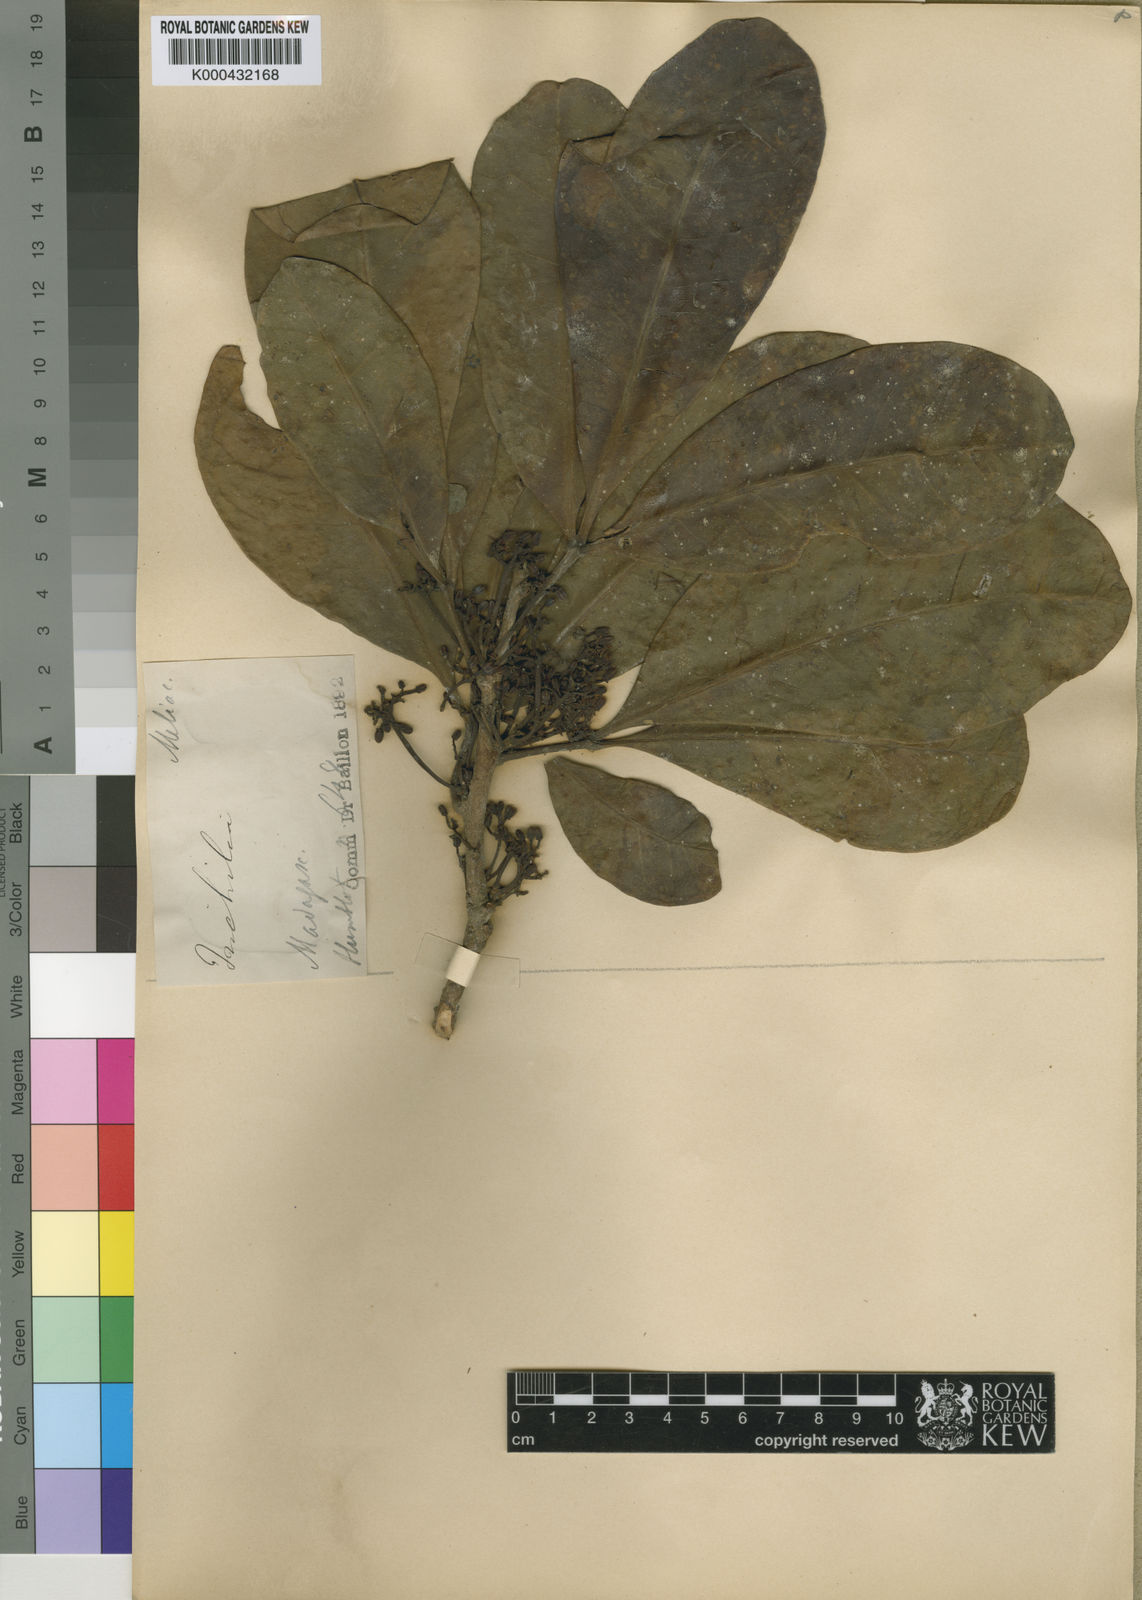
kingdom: Plantae
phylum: Tracheophyta
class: Magnoliopsida
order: Sapindales
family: Meliaceae
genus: Malleastrum
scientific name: Malleastrum obtusifolium
